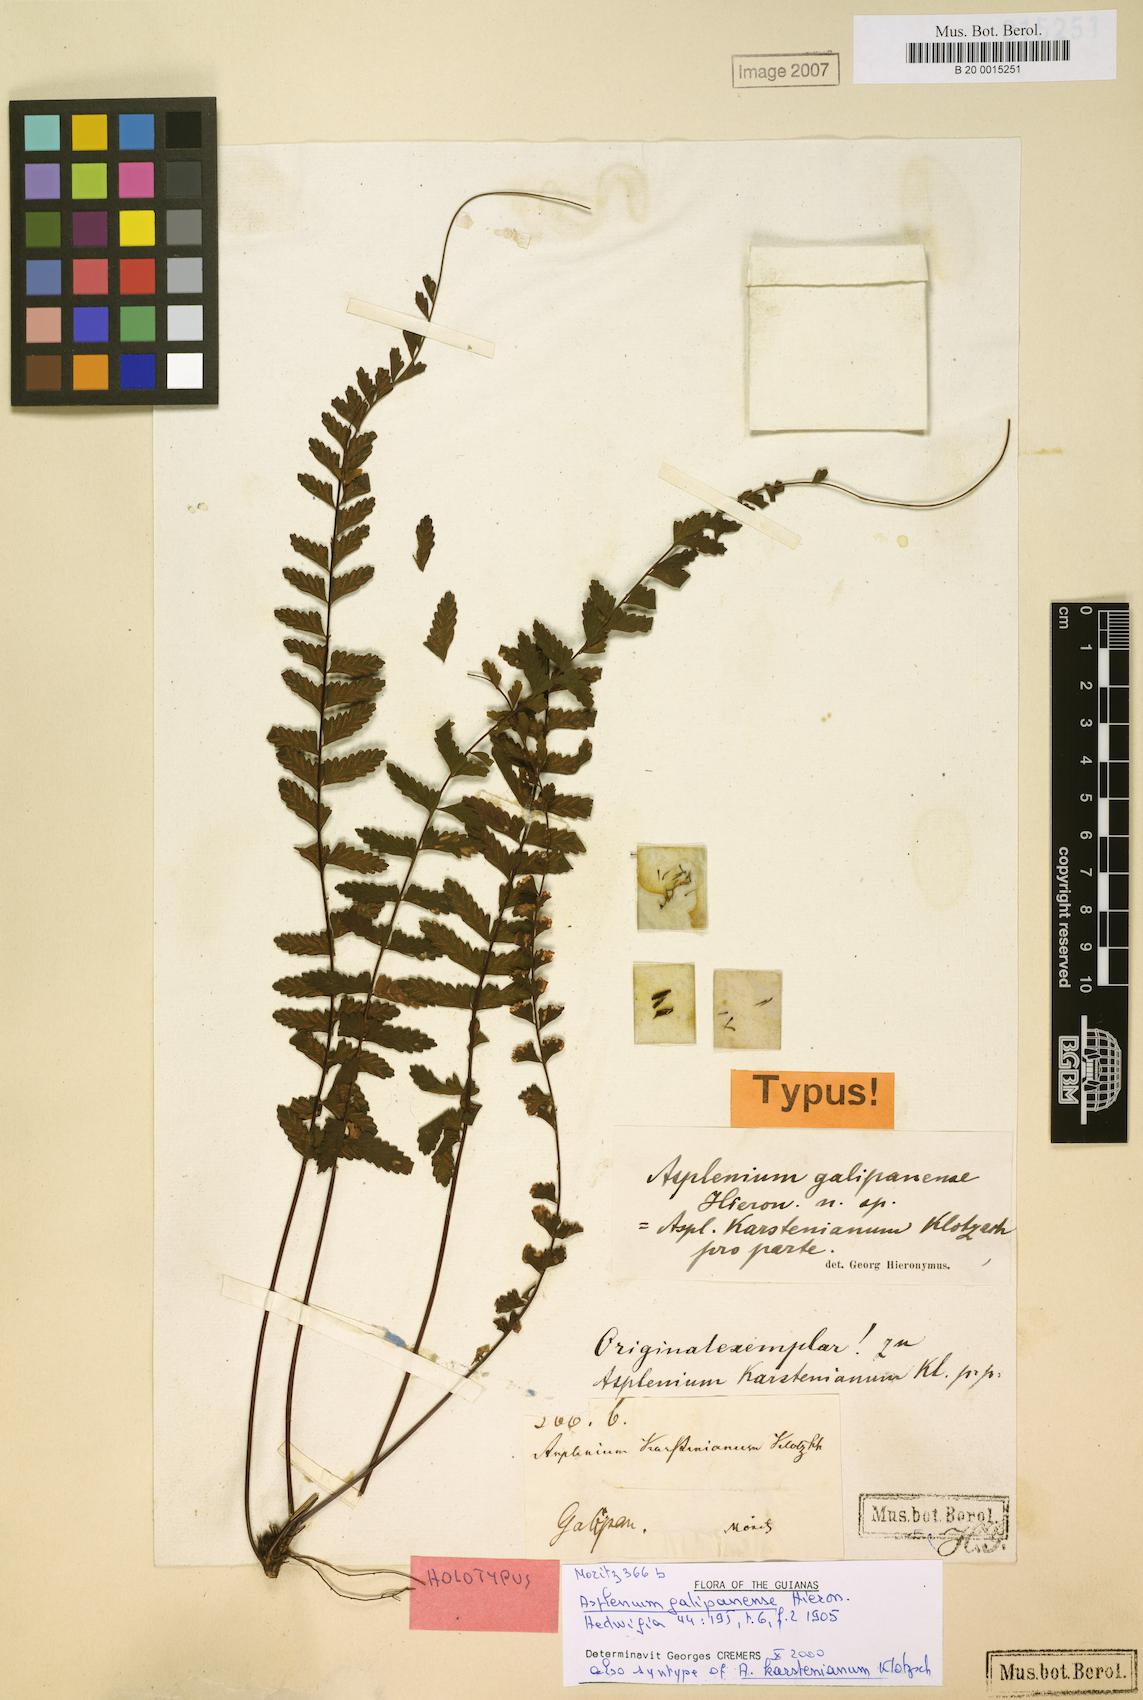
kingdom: Plantae
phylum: Tracheophyta
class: Polypodiopsida
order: Polypodiales
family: Aspleniaceae
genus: Asplenium
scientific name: Asplenium cirrhatum
